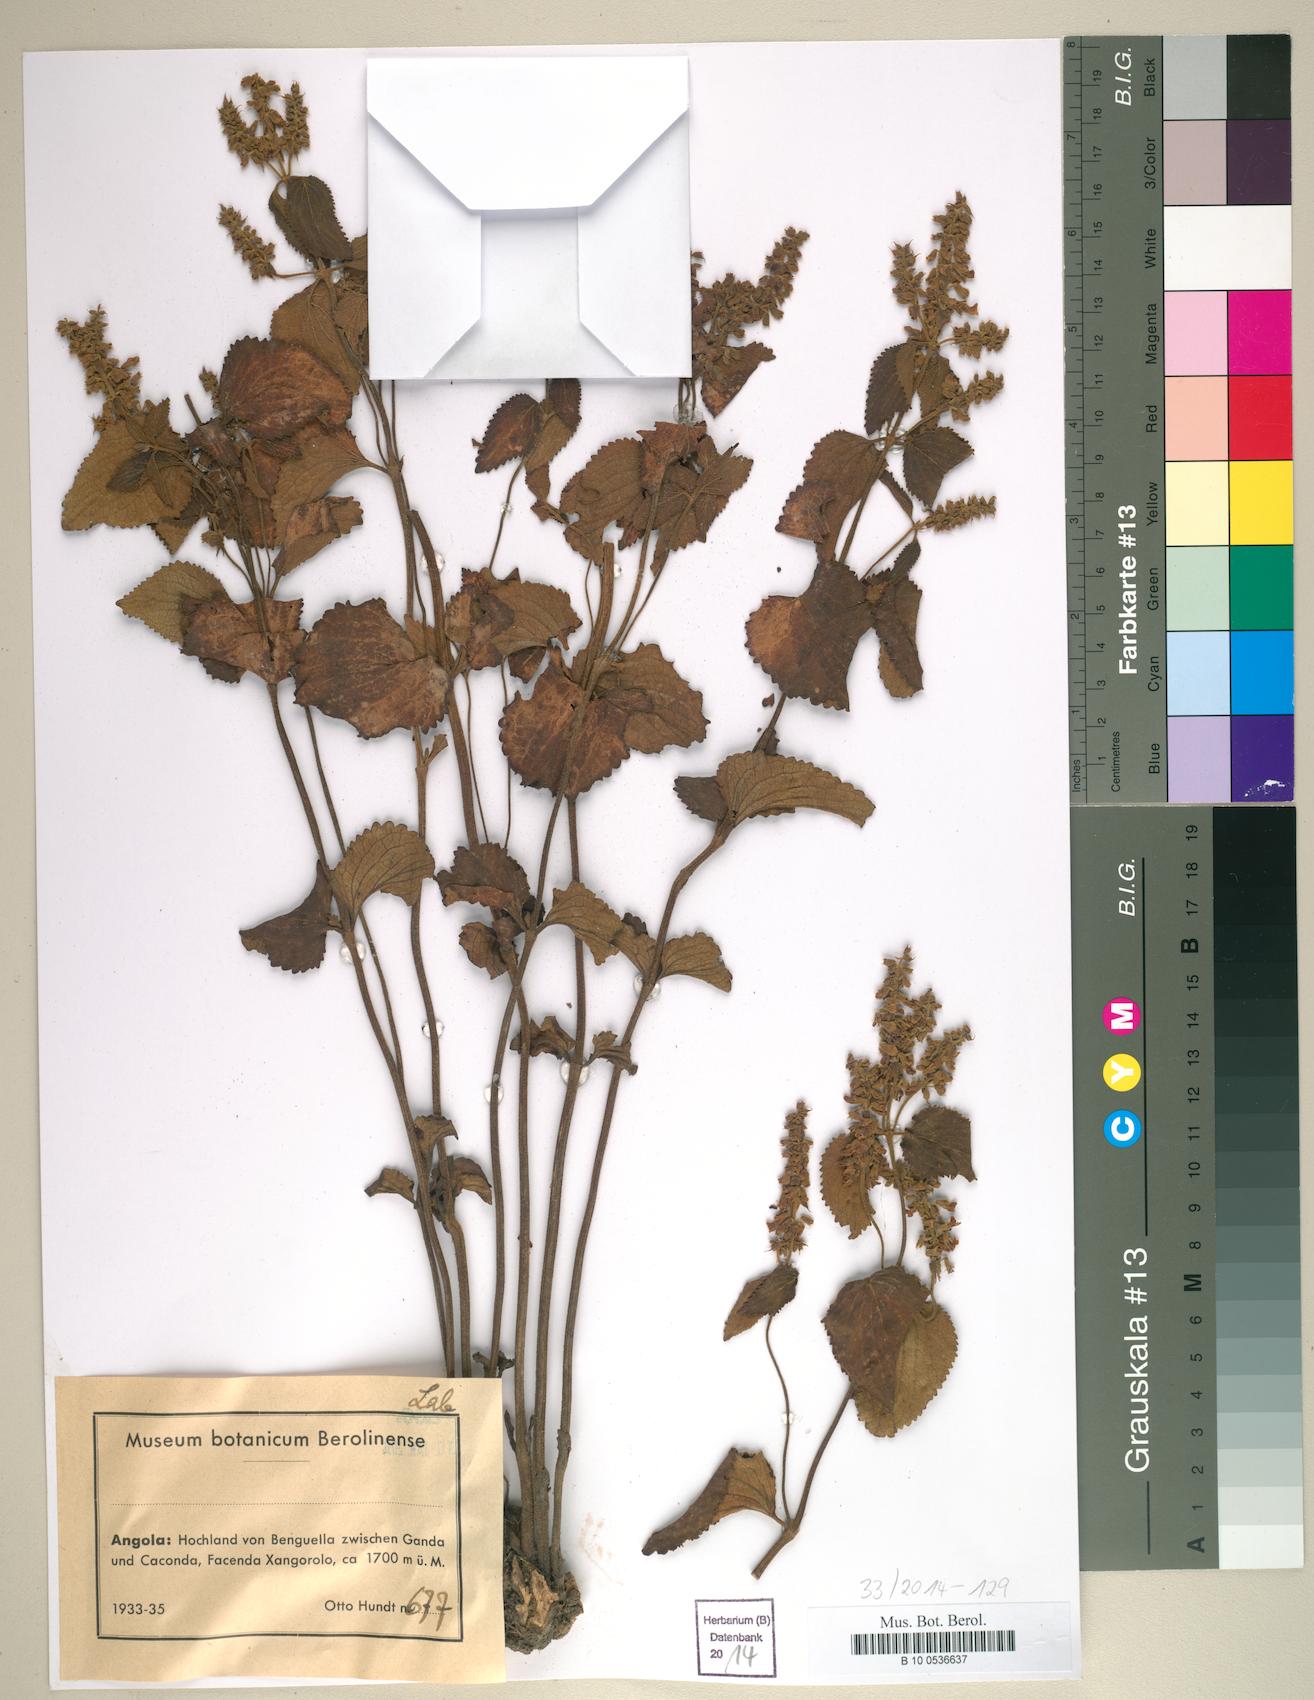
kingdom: Plantae
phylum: Tracheophyta
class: Magnoliopsida
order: Lamiales
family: Lamiaceae
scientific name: Lamiaceae
